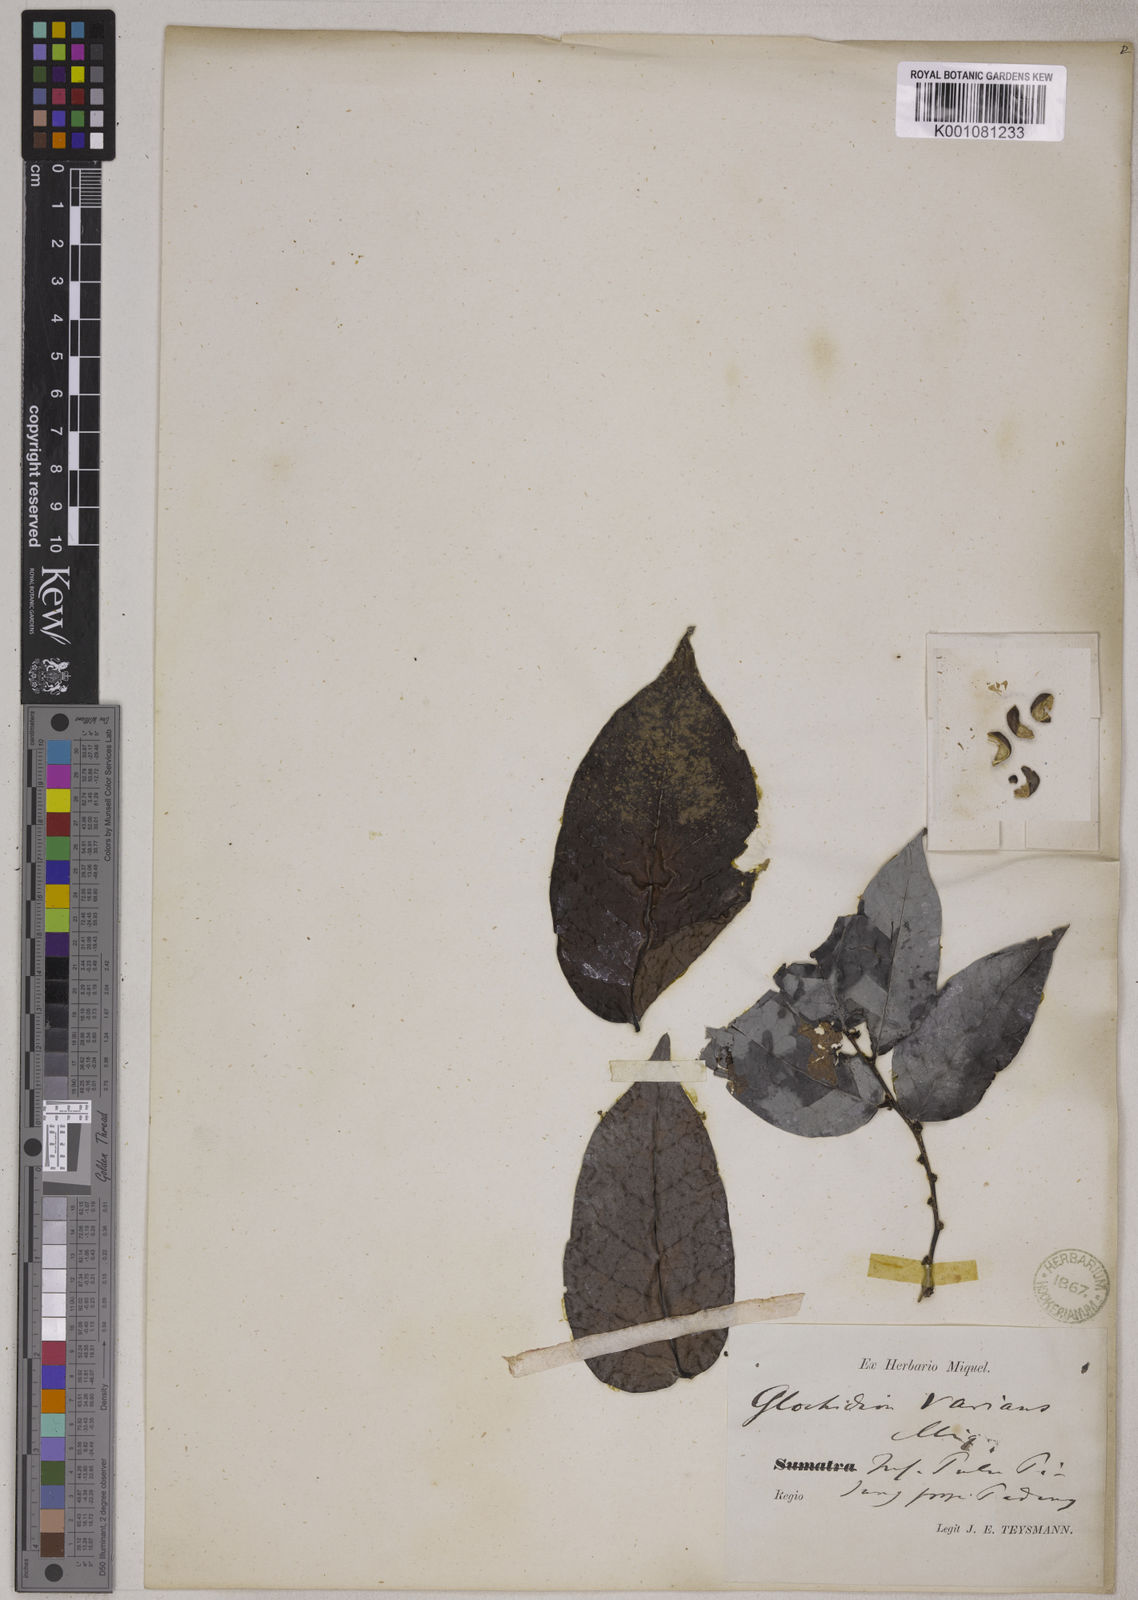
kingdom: Plantae
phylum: Tracheophyta
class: Magnoliopsida
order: Malpighiales
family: Phyllanthaceae
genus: Glochidion
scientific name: Glochidion varians
